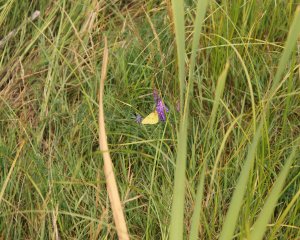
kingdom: Animalia
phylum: Arthropoda
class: Insecta
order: Lepidoptera
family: Pieridae
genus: Colias
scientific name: Colias eurytheme
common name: Orange Sulphur
